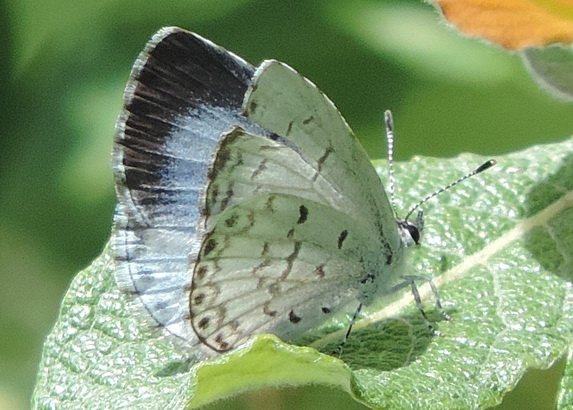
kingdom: Animalia
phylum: Arthropoda
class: Insecta
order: Lepidoptera
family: Lycaenidae
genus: Celastrina
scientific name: Celastrina lucia
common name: Northern Spring Azure
